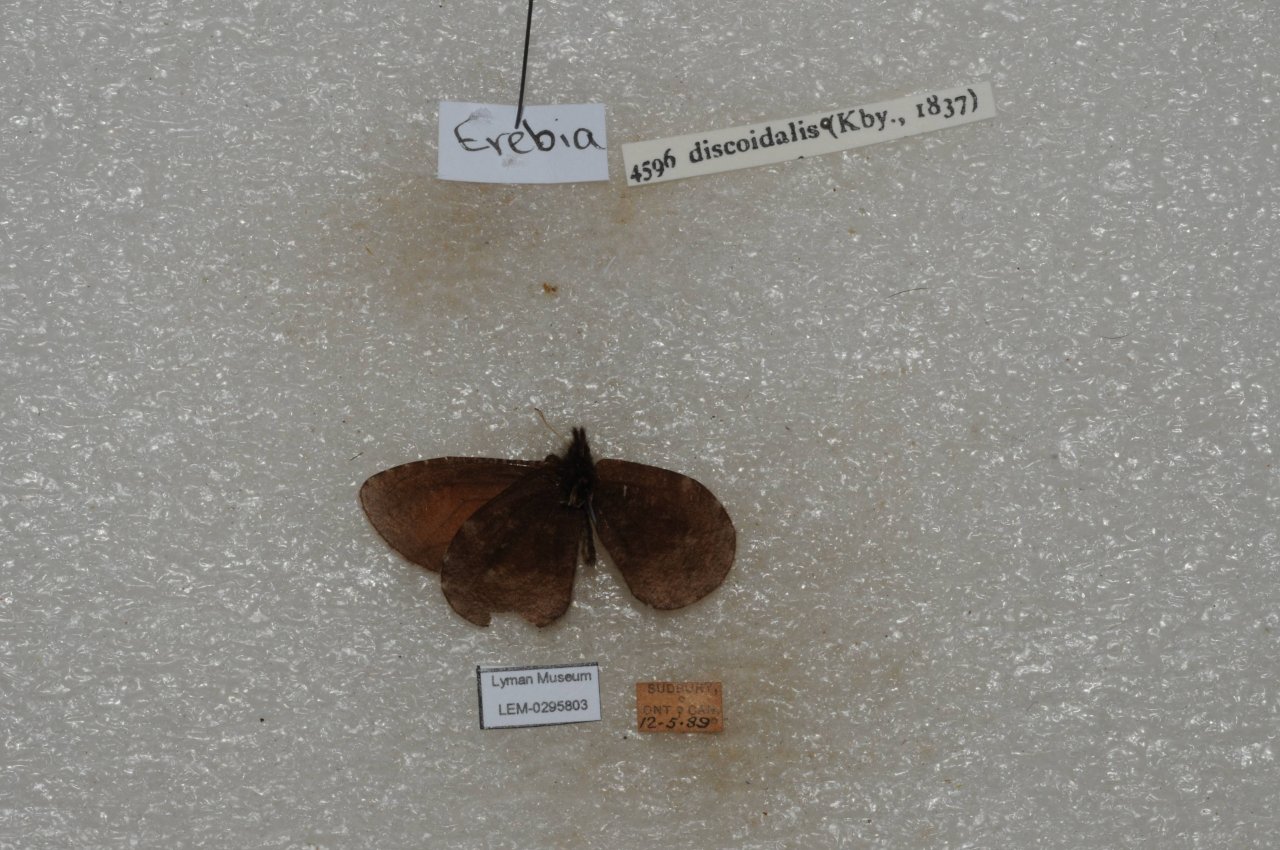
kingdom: Animalia
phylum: Arthropoda
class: Insecta
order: Lepidoptera
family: Nymphalidae
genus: Erebia
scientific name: Erebia discoidalis
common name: Red-disked Alpine
